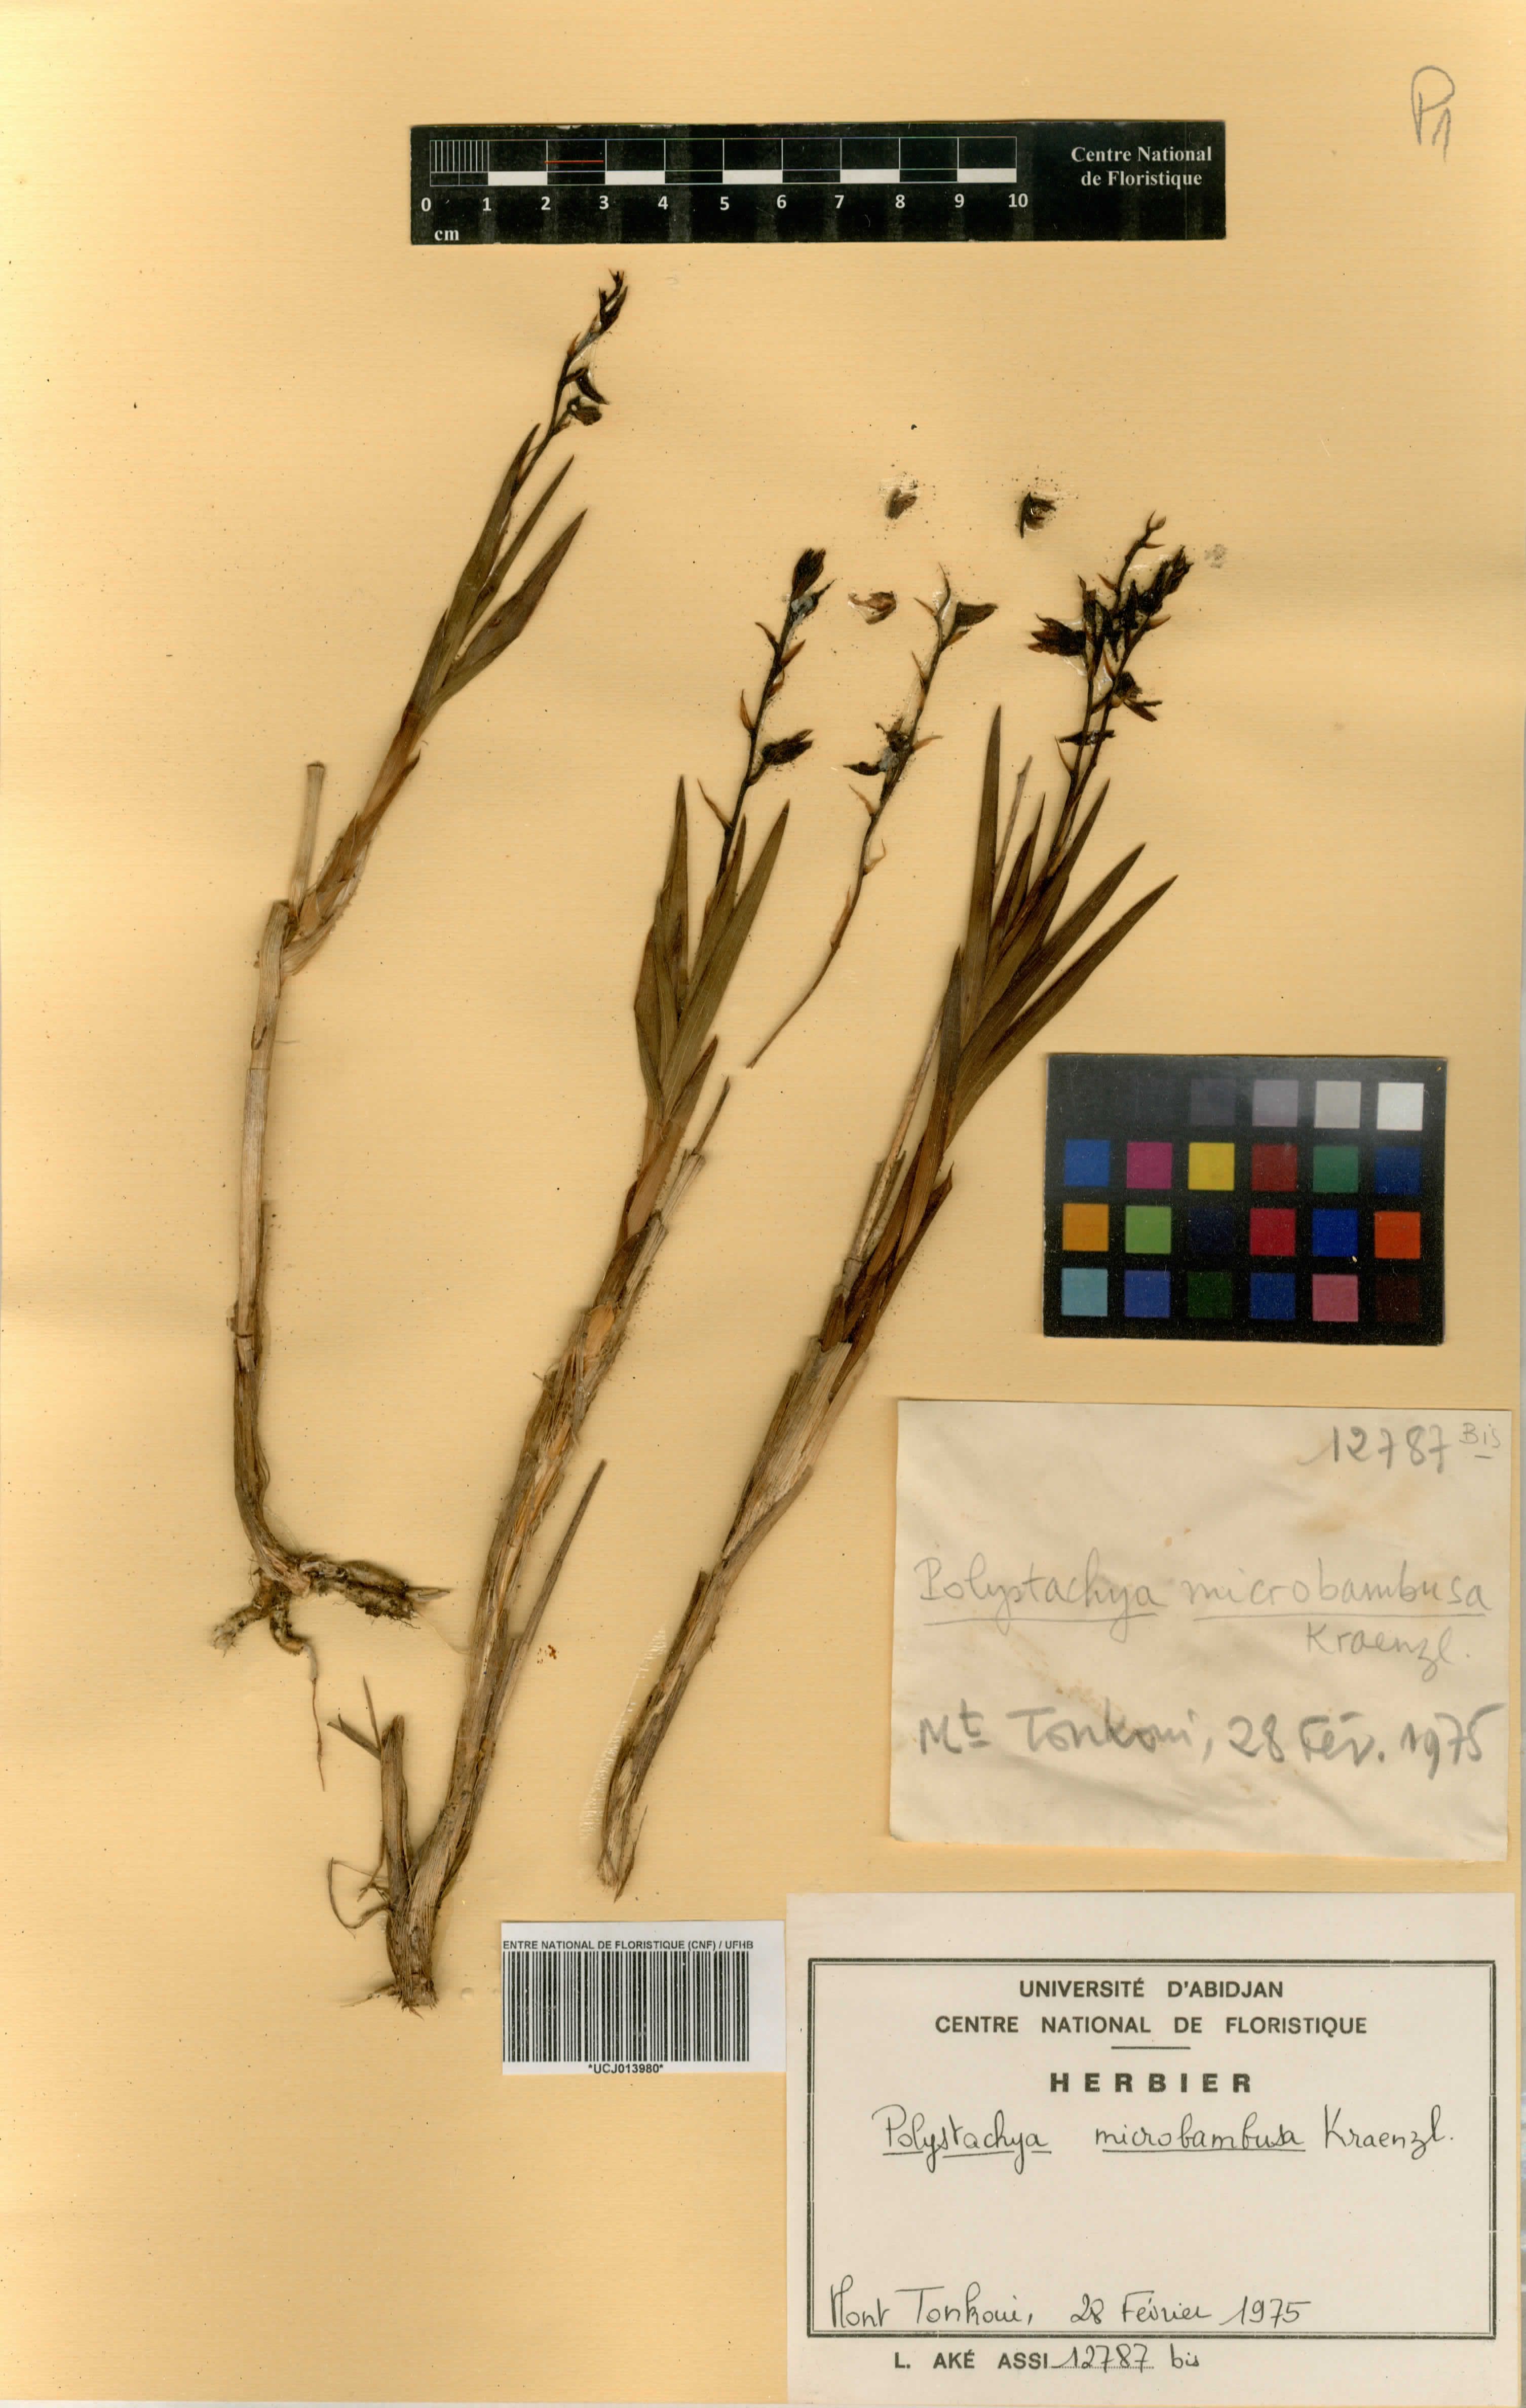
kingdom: Plantae
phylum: Tracheophyta
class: Liliopsida
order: Asparagales
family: Orchidaceae
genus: Polystachya
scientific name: Polystachya microbambusa
